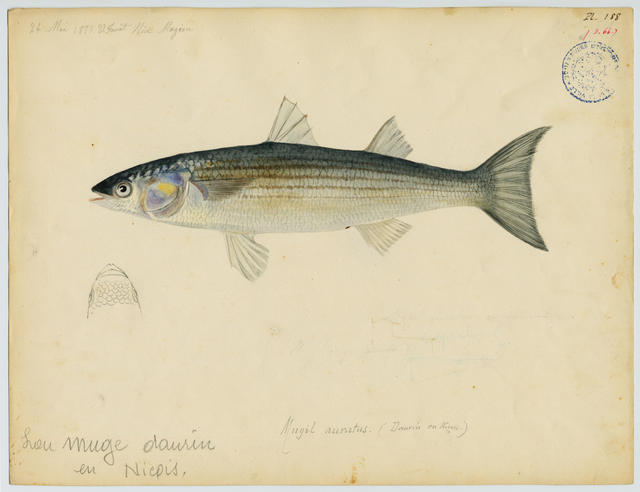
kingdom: Animalia
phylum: Chordata
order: Mugiliformes
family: Mugilidae
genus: Chelon
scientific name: Chelon ramada
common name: Thinlip grey mullet
